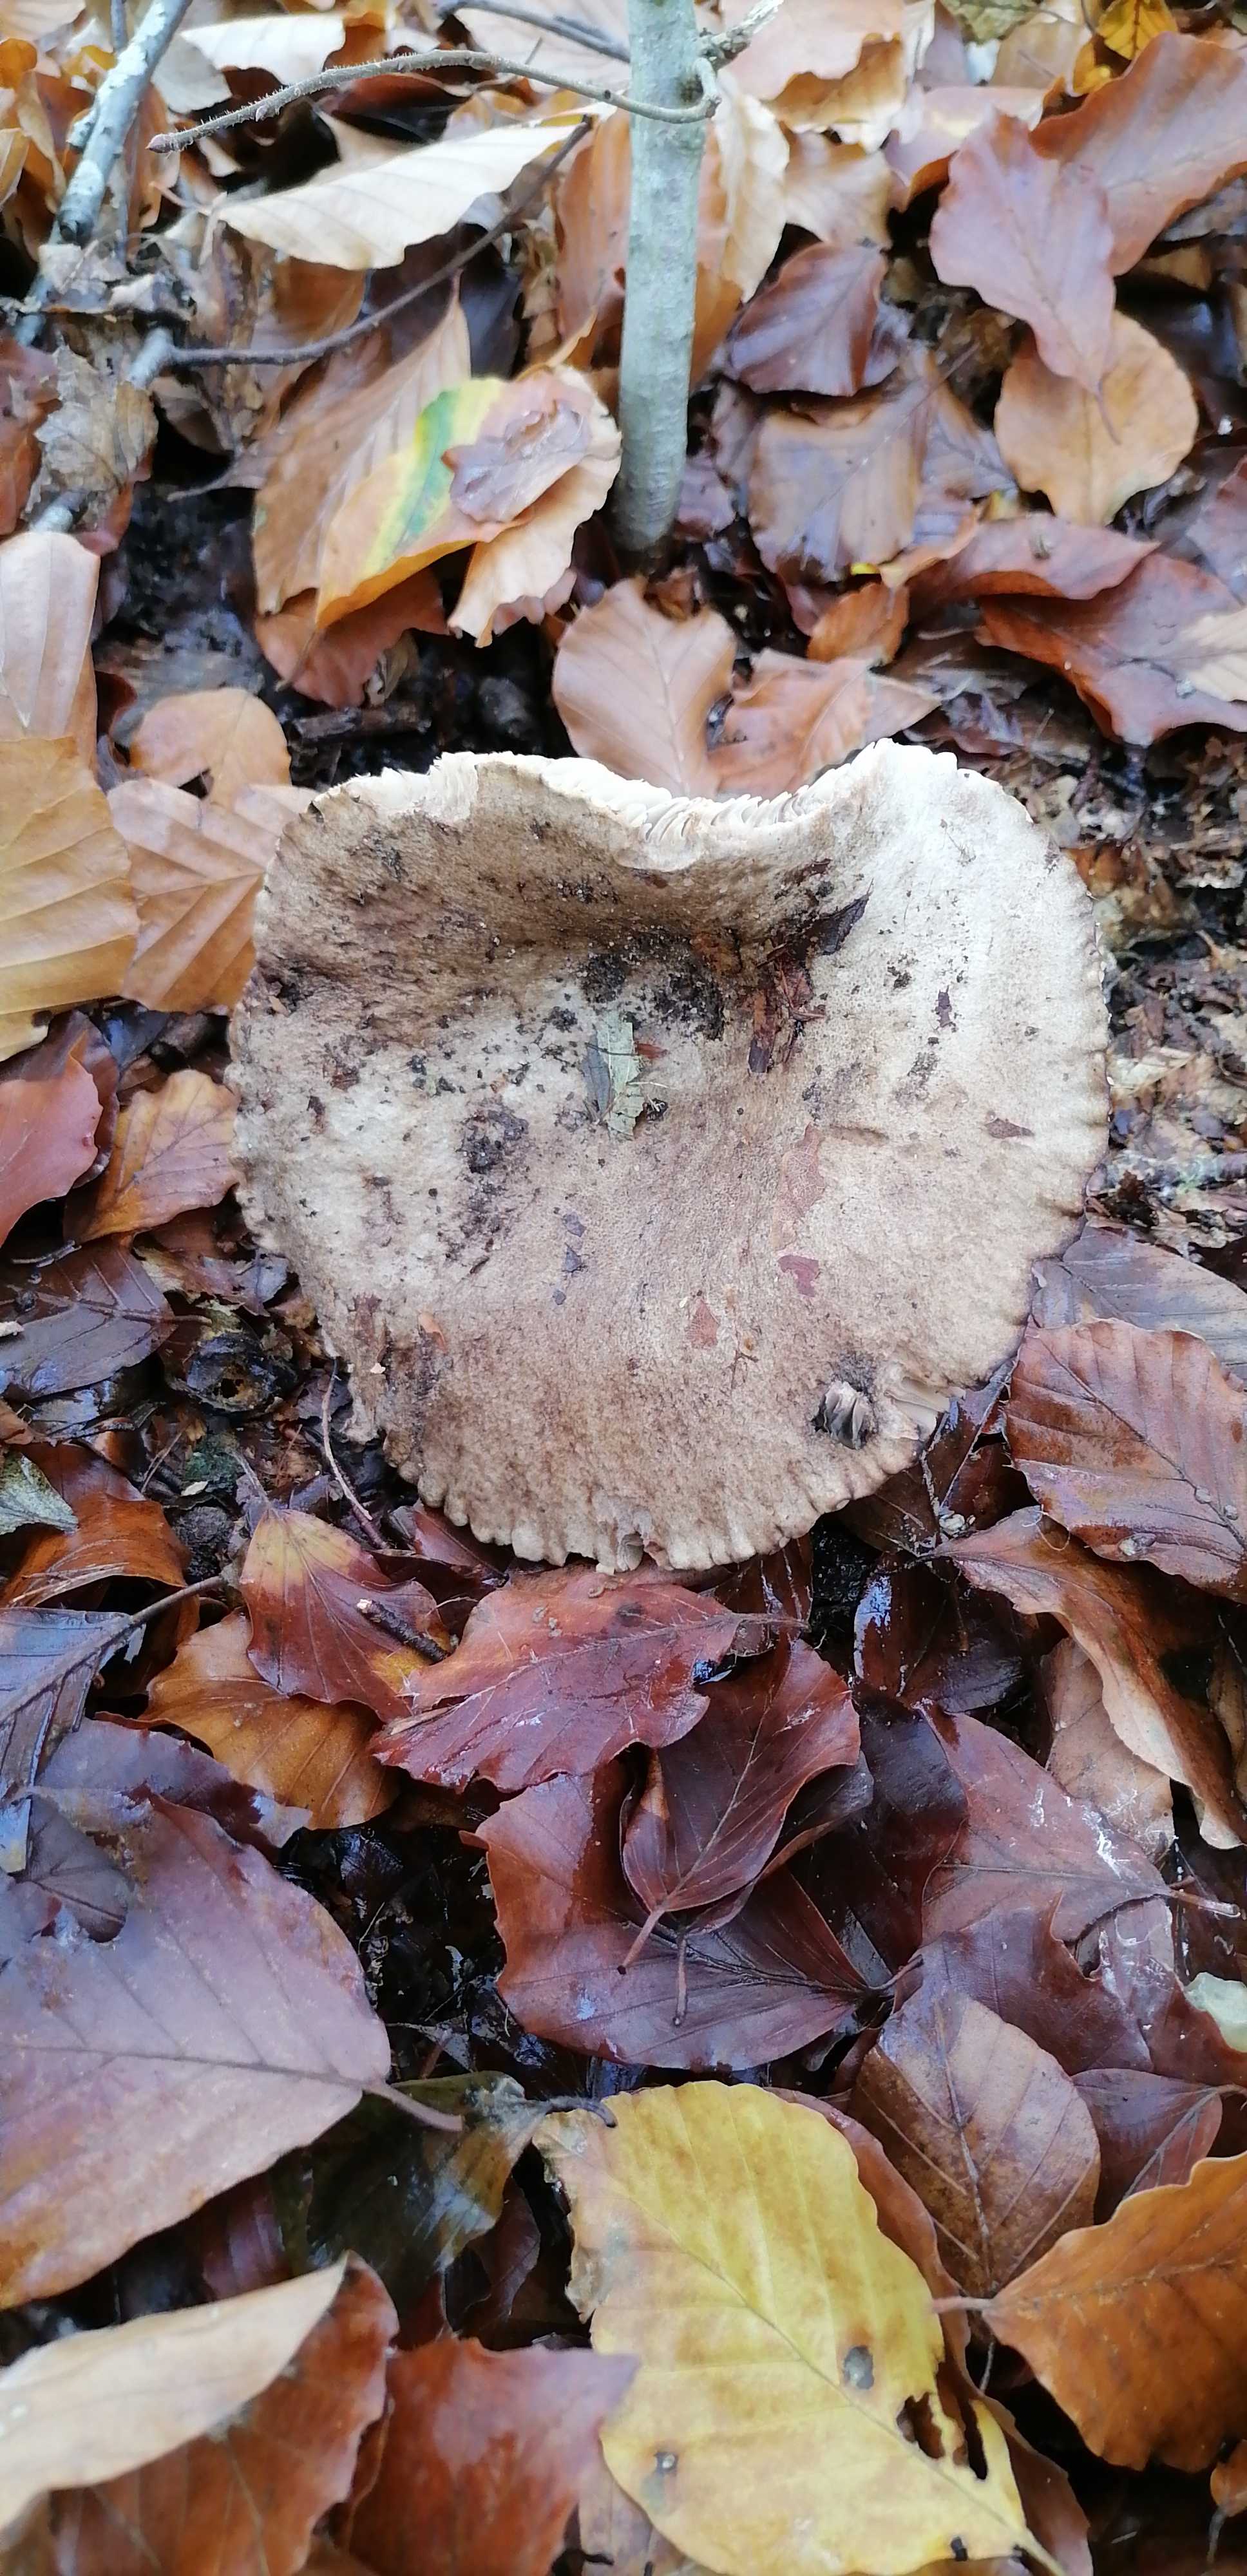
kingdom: Fungi
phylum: Basidiomycota
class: Agaricomycetes
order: Russulales
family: Russulaceae
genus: Russula
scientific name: Russula adusta
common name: sværtende skørhat
